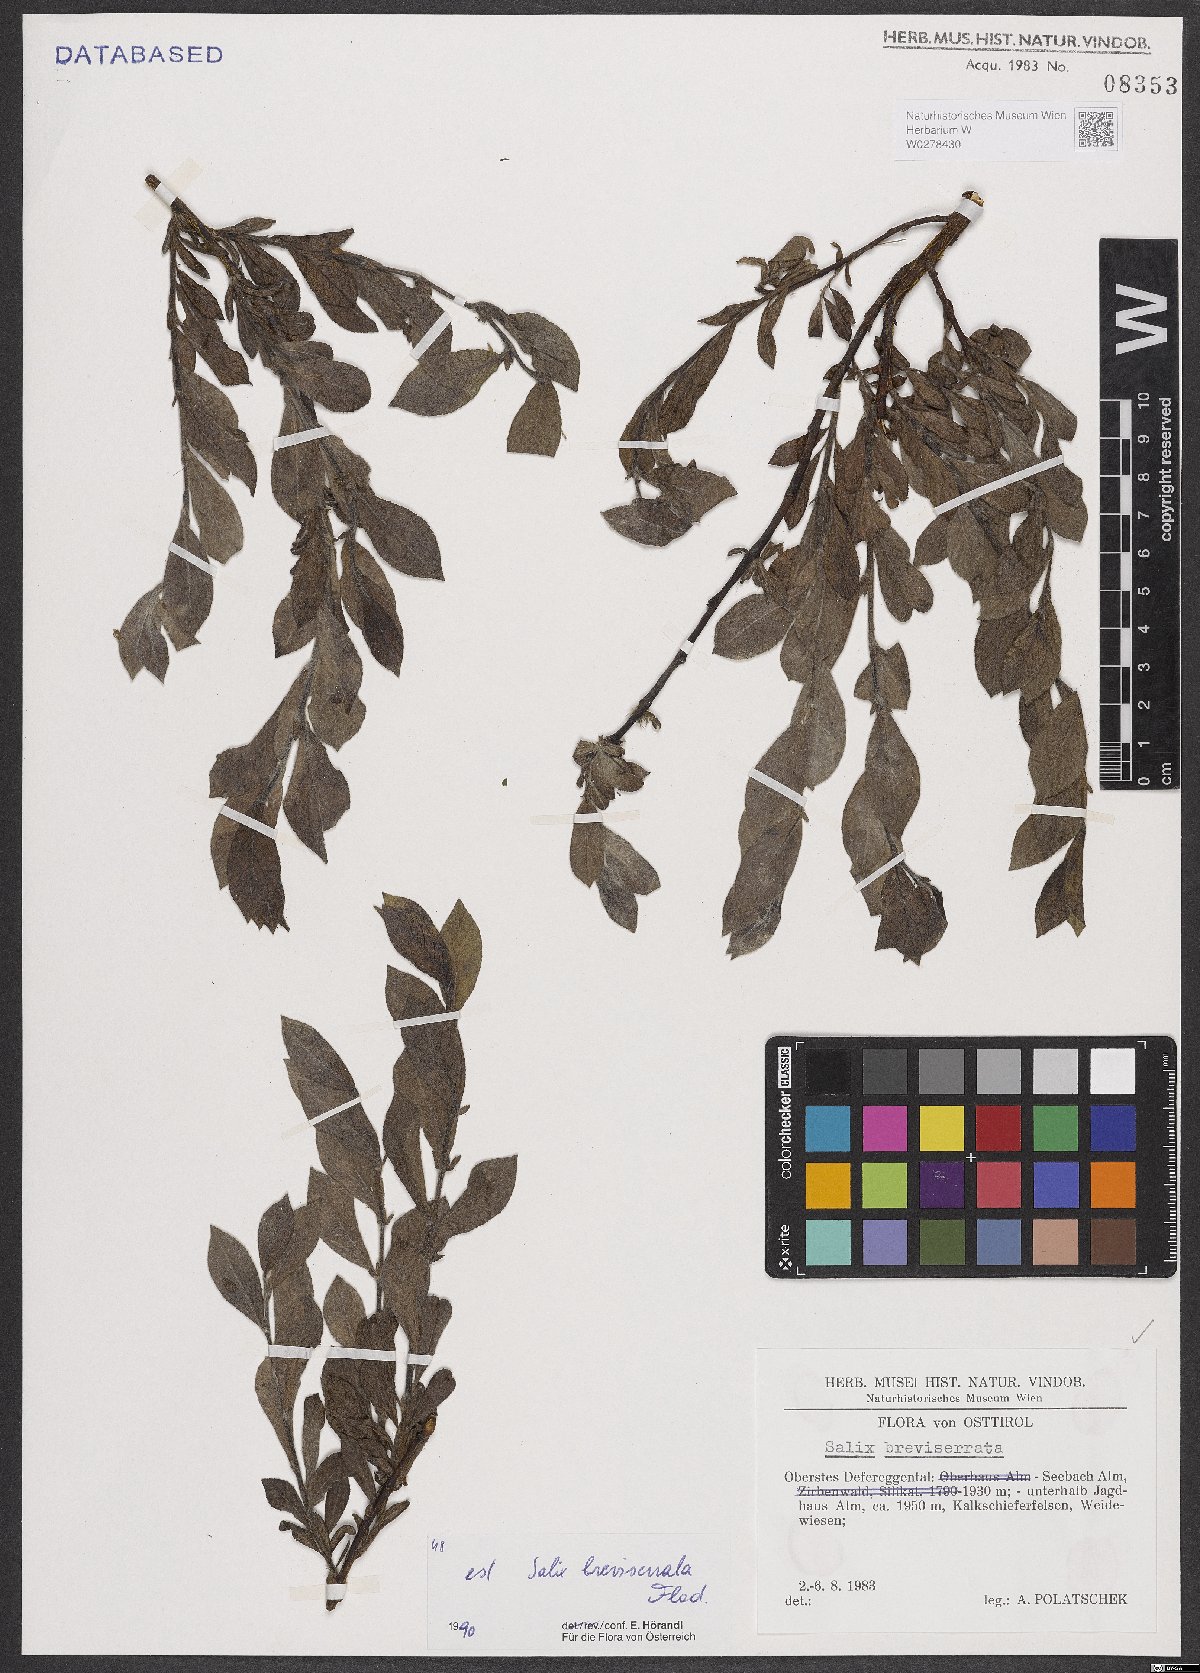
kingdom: Plantae
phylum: Tracheophyta
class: Magnoliopsida
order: Malpighiales
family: Salicaceae
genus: Salix
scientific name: Salix breviserrata
